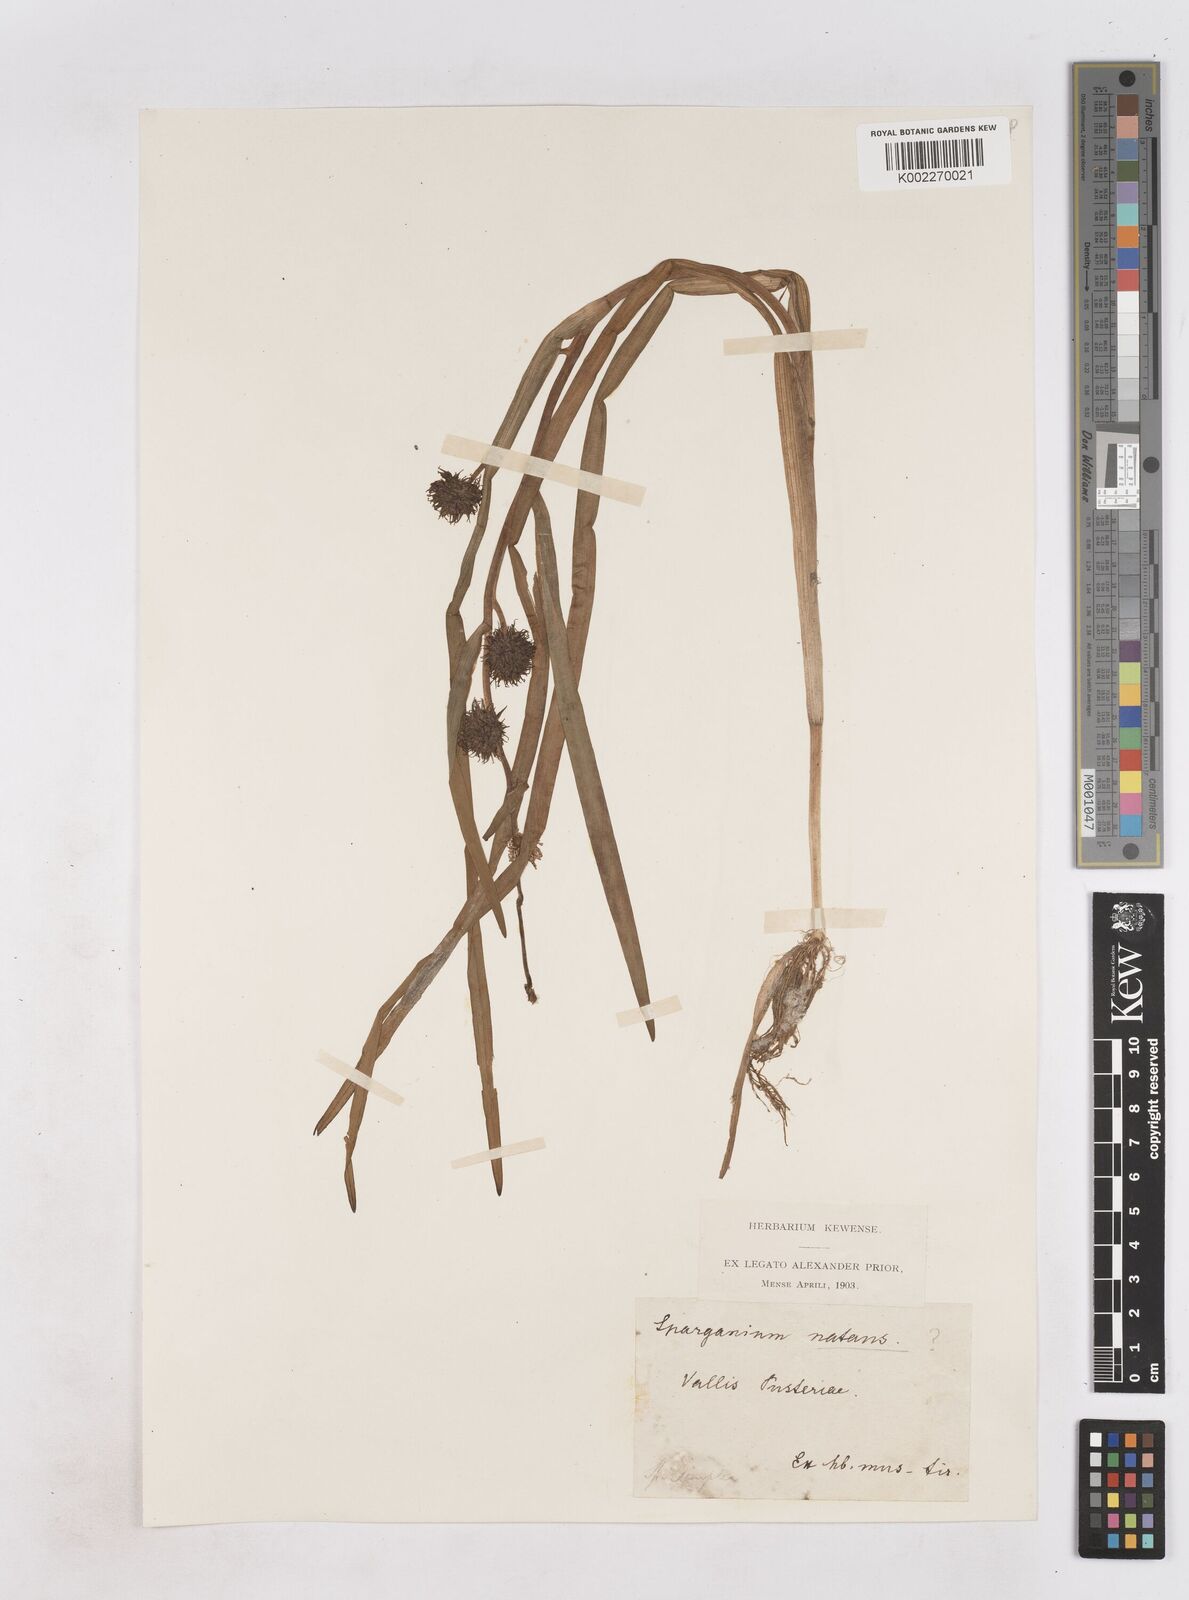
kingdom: Plantae
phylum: Tracheophyta
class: Liliopsida
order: Poales
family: Typhaceae
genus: Sparganium
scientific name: Sparganium gramineum
